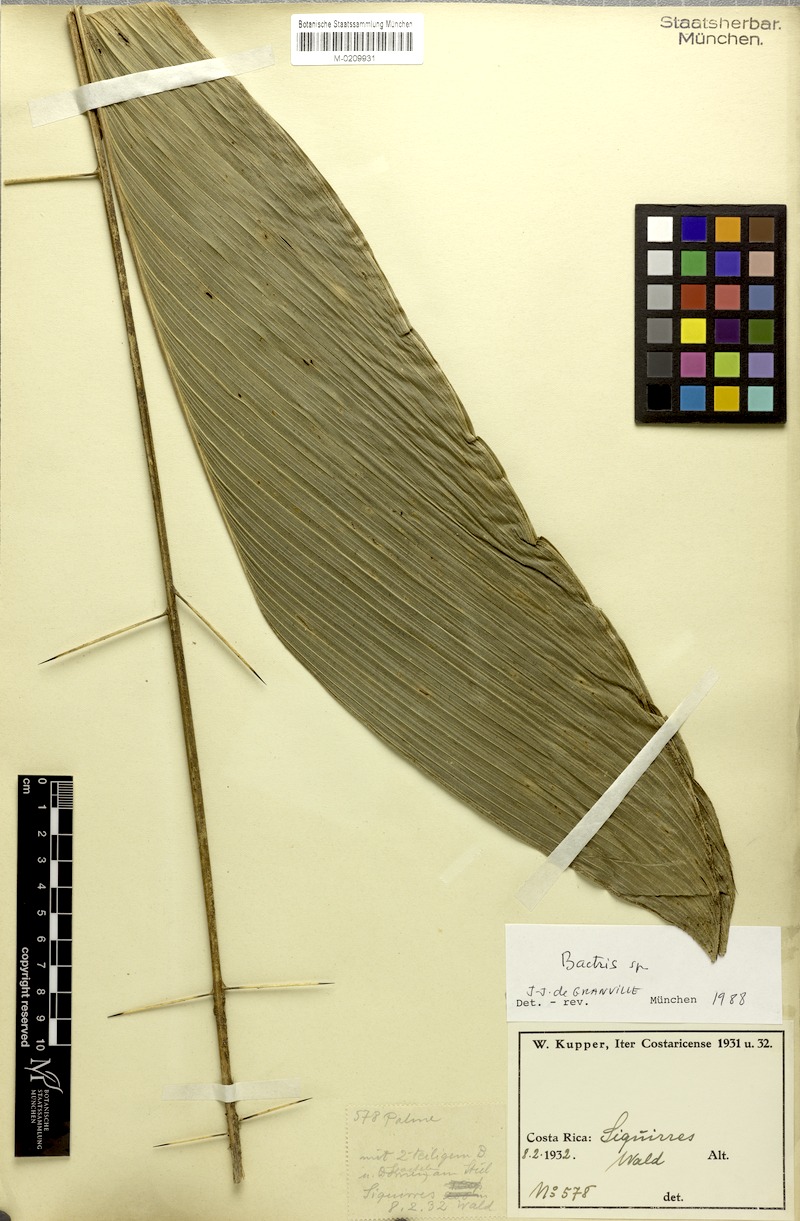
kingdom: Plantae
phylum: Tracheophyta
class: Liliopsida
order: Arecales
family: Arecaceae
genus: Bactris
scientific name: Bactris
